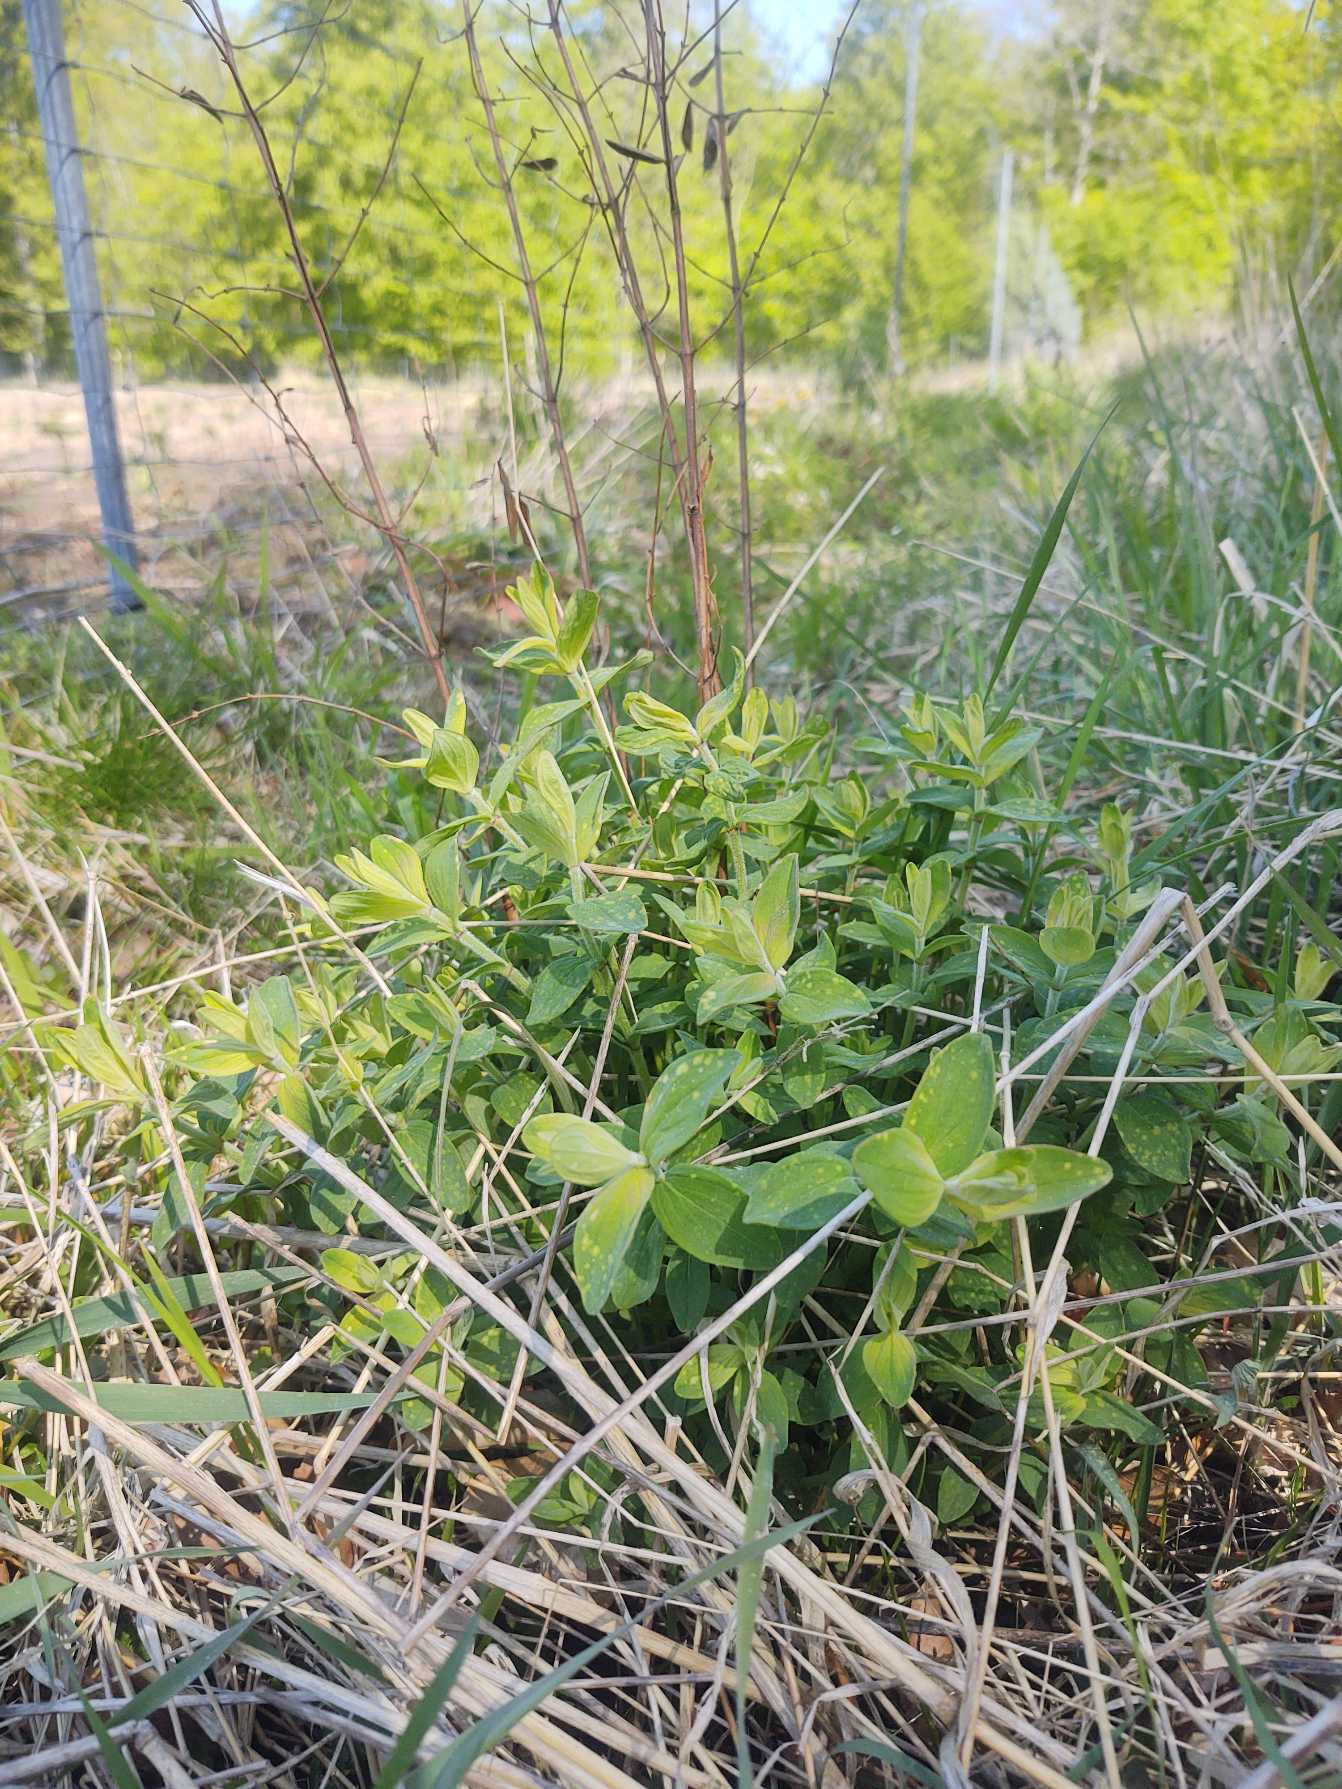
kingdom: Plantae
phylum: Tracheophyta
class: Magnoliopsida
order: Malpighiales
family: Hypericaceae
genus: Hypericum
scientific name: Hypericum hirsutum
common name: Lådden perikon
